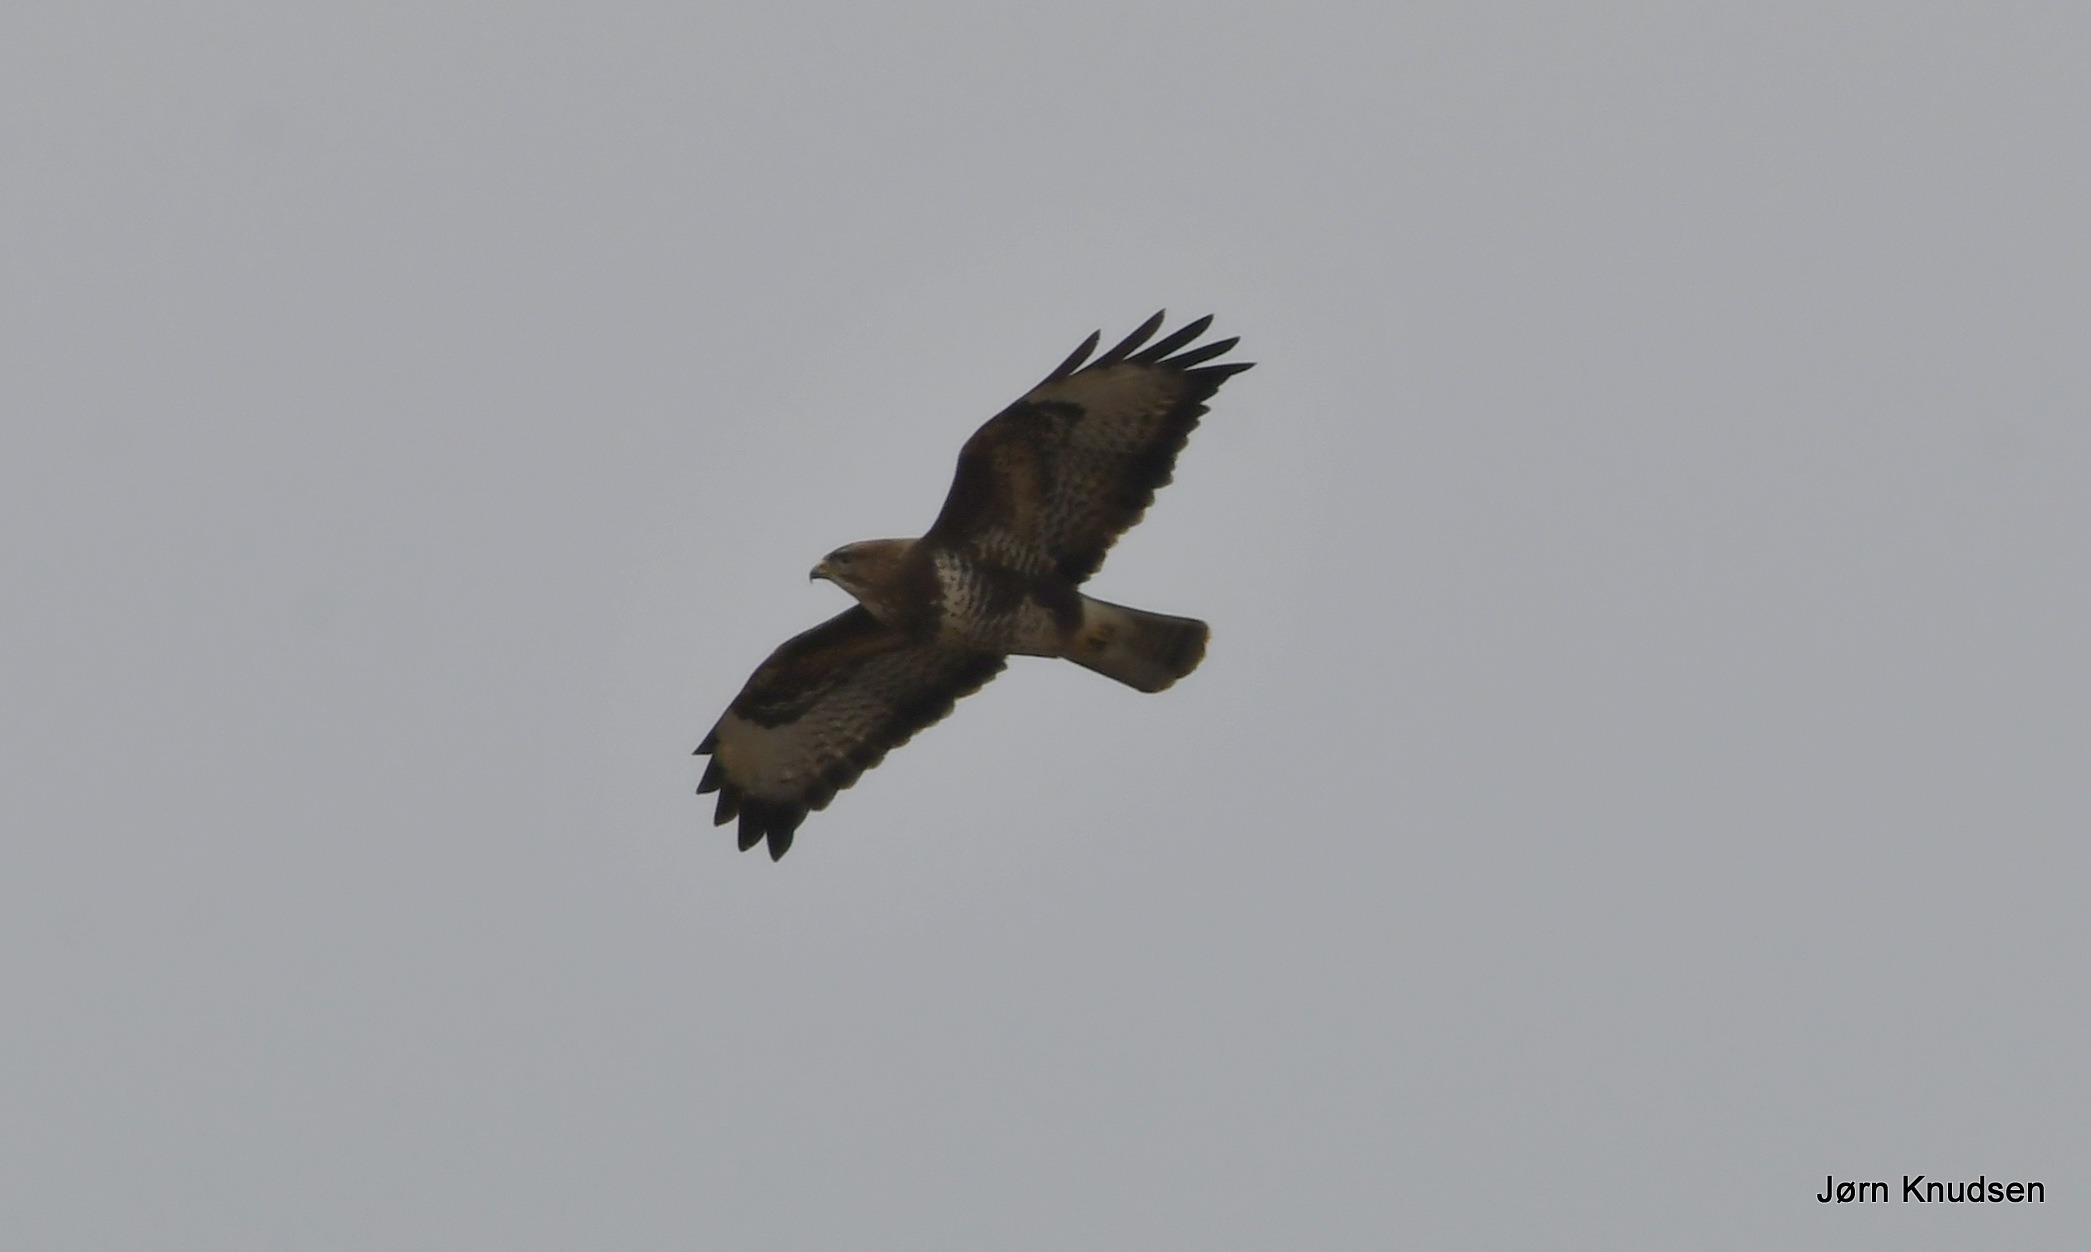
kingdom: Animalia
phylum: Chordata
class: Aves
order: Accipitriformes
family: Accipitridae
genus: Buteo
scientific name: Buteo buteo
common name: Musvåge
